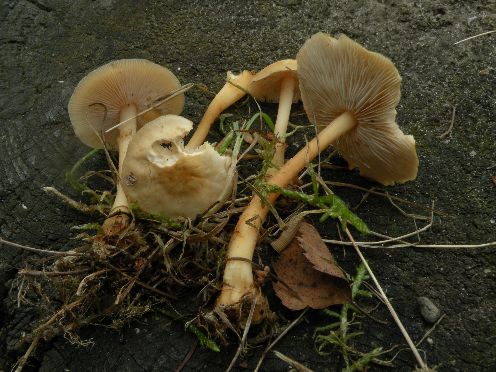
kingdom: Fungi
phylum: Basidiomycota
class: Agaricomycetes
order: Agaricales
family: Omphalotaceae
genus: Gymnopus
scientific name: Gymnopus aquosus
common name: bleg fladhat
